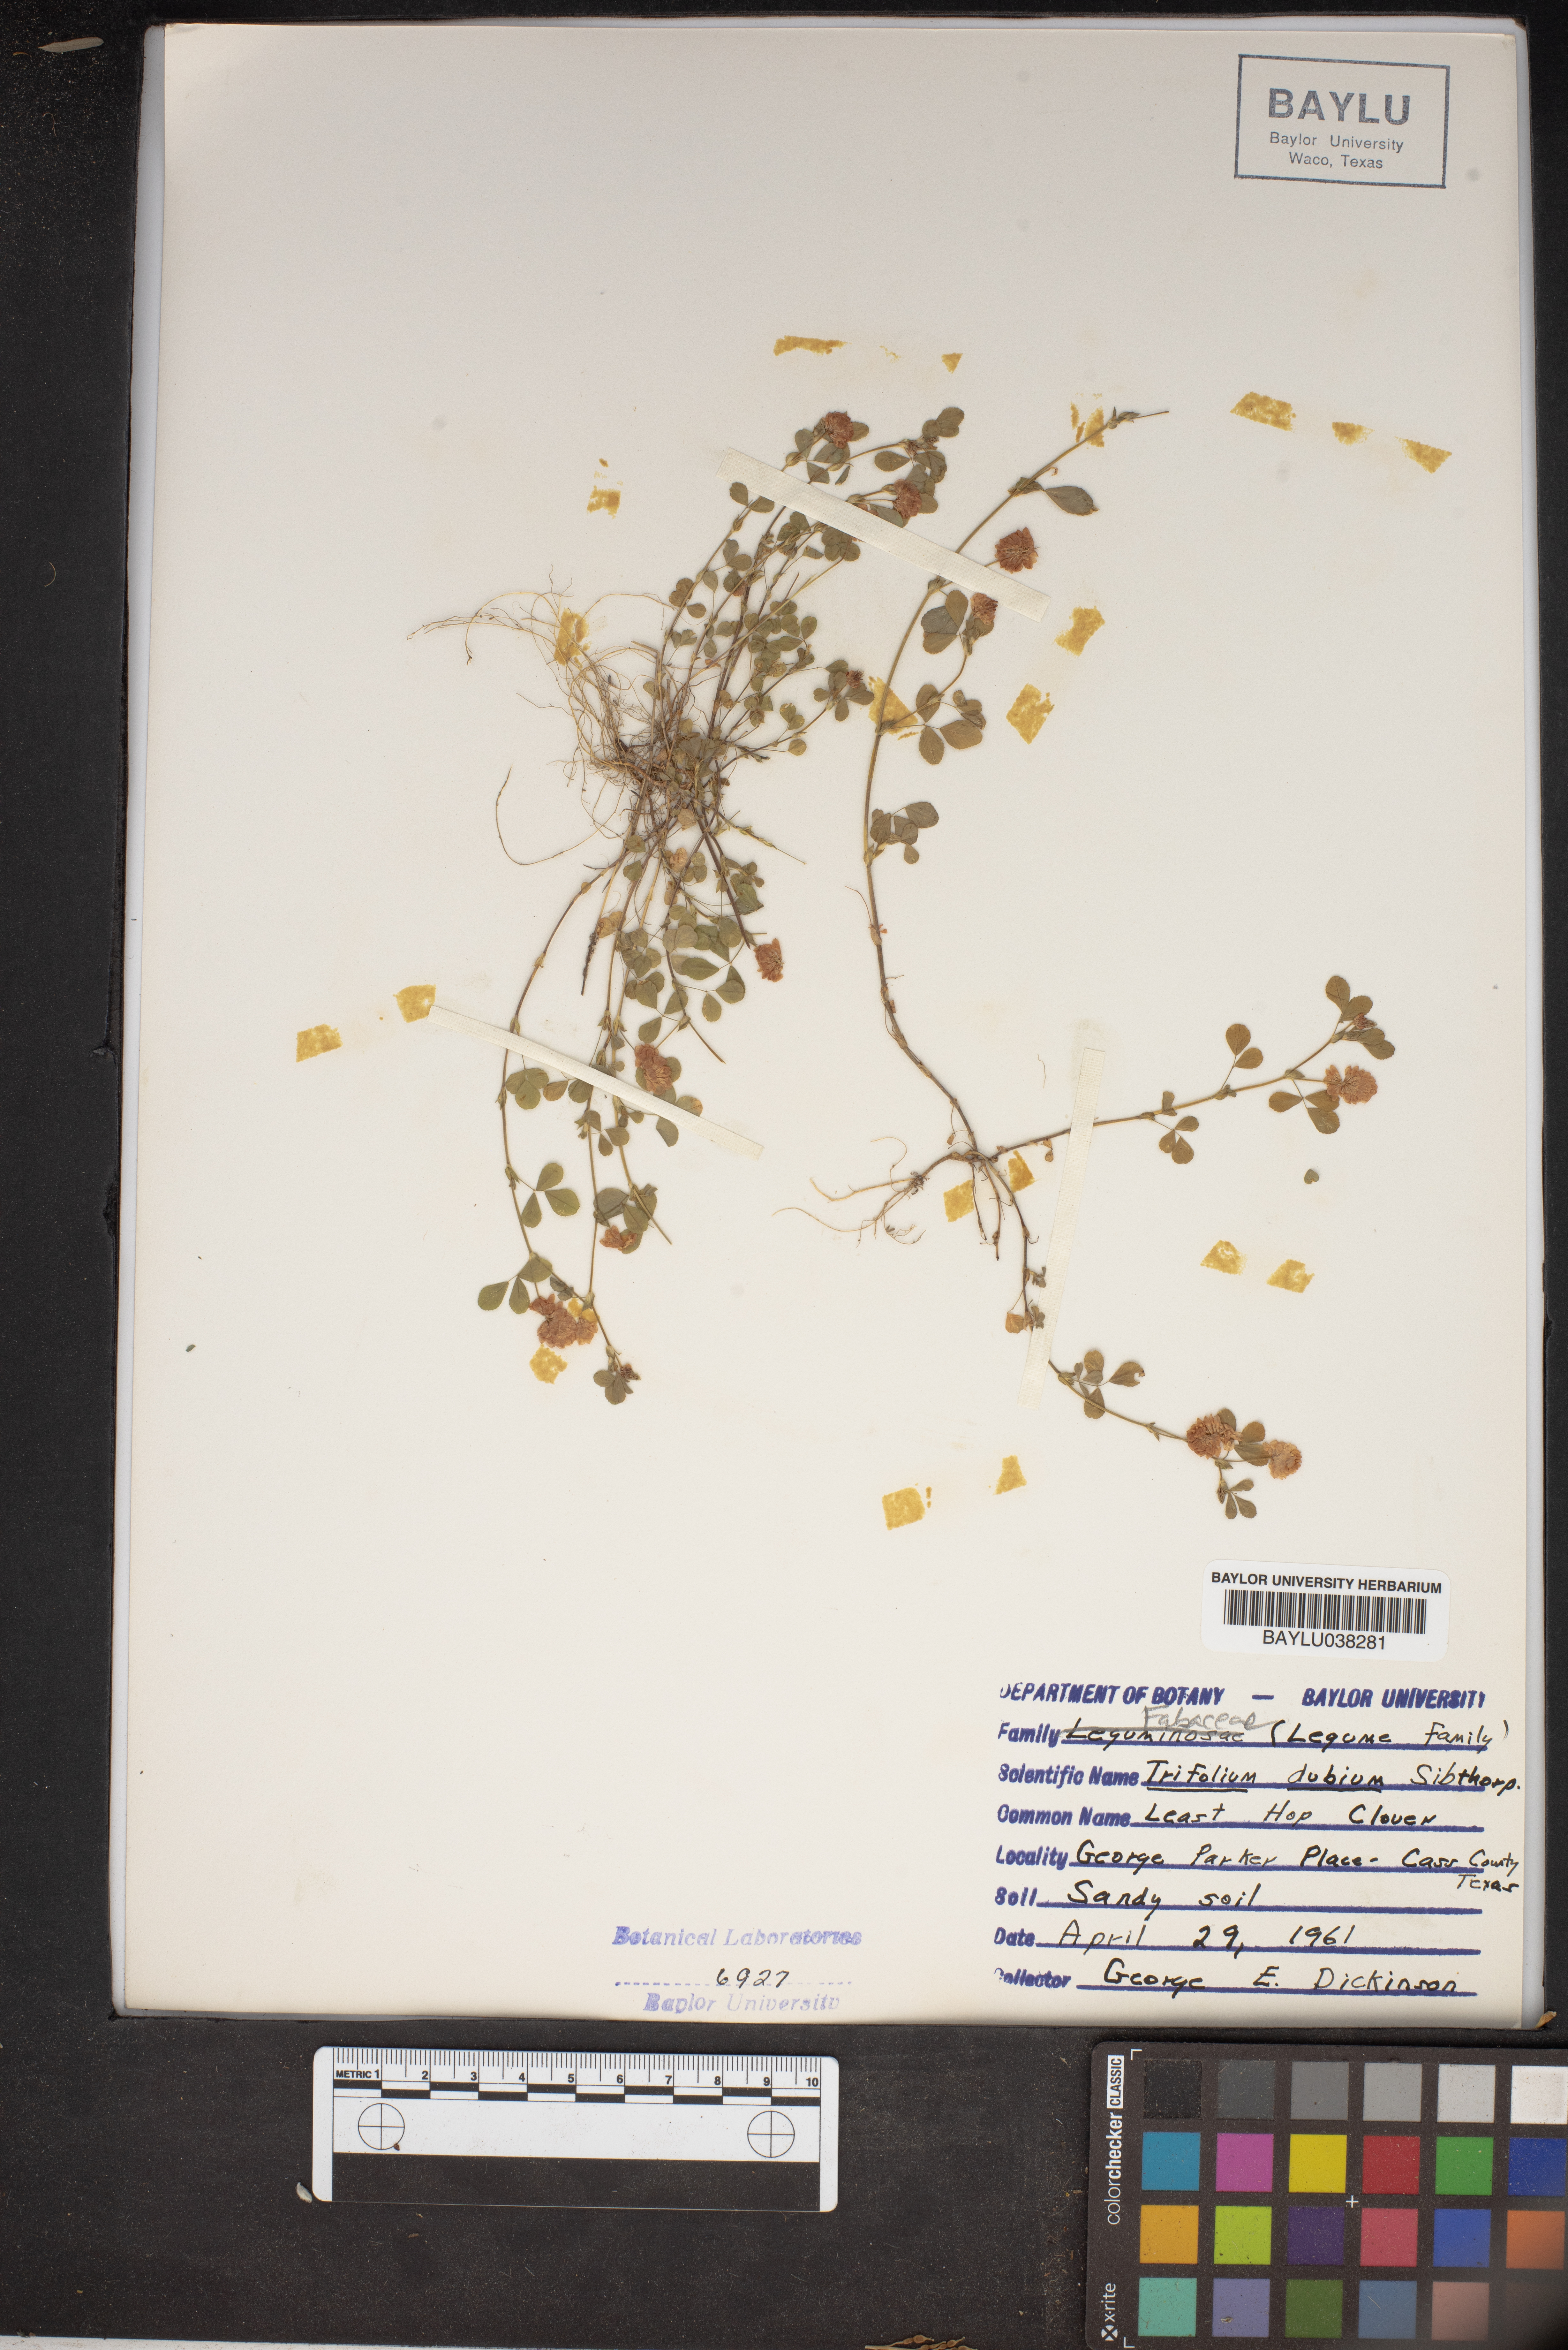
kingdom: Plantae
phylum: Tracheophyta
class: Magnoliopsida
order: Fabales
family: Fabaceae
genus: Trifolium
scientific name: Trifolium dubium
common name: Suckling clover
